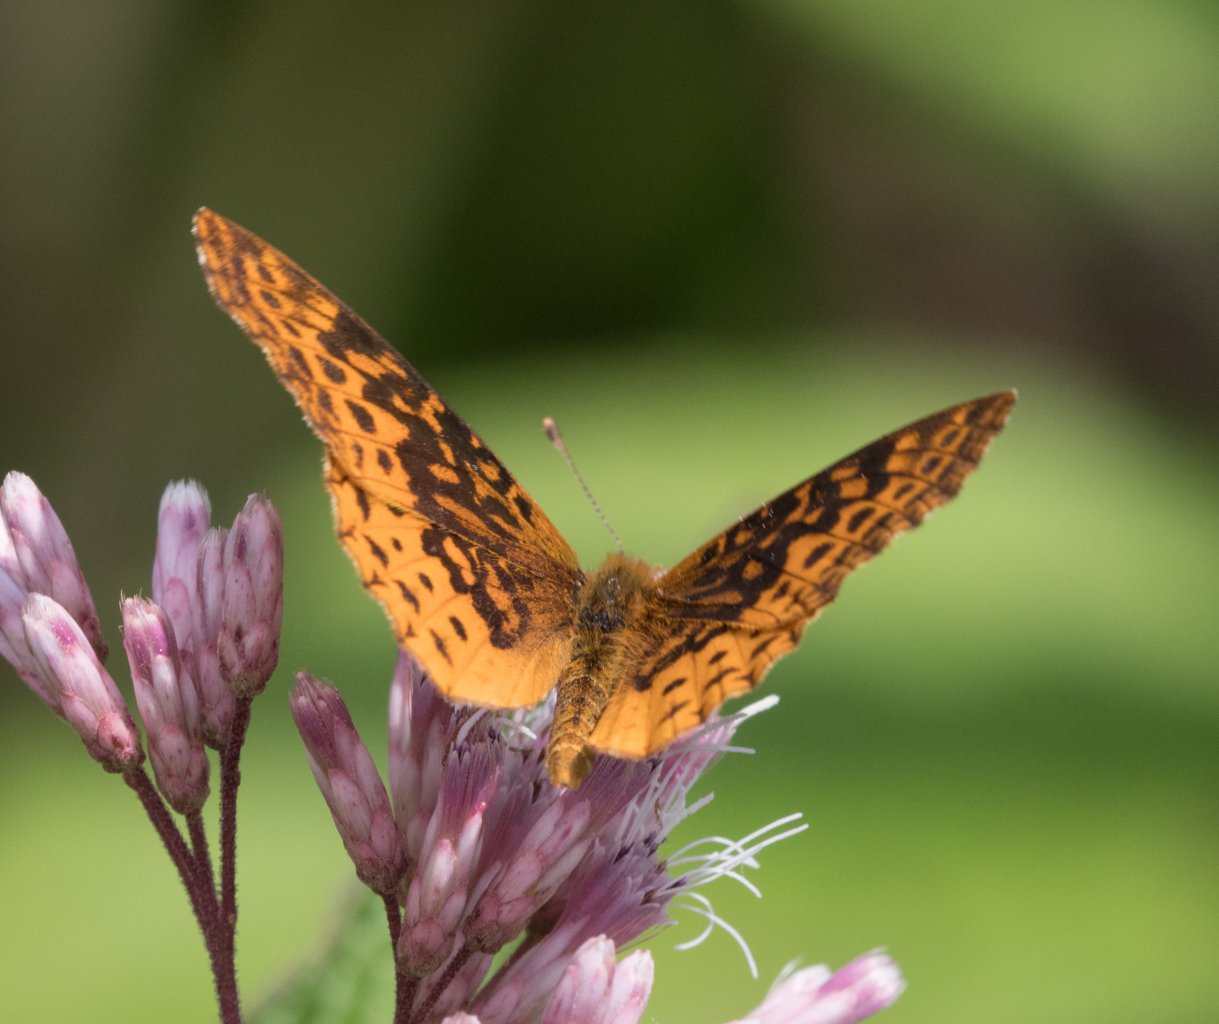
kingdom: Animalia
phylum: Arthropoda
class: Insecta
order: Lepidoptera
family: Nymphalidae
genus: Clossiana
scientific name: Clossiana toddi
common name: Meadow Fritillary
